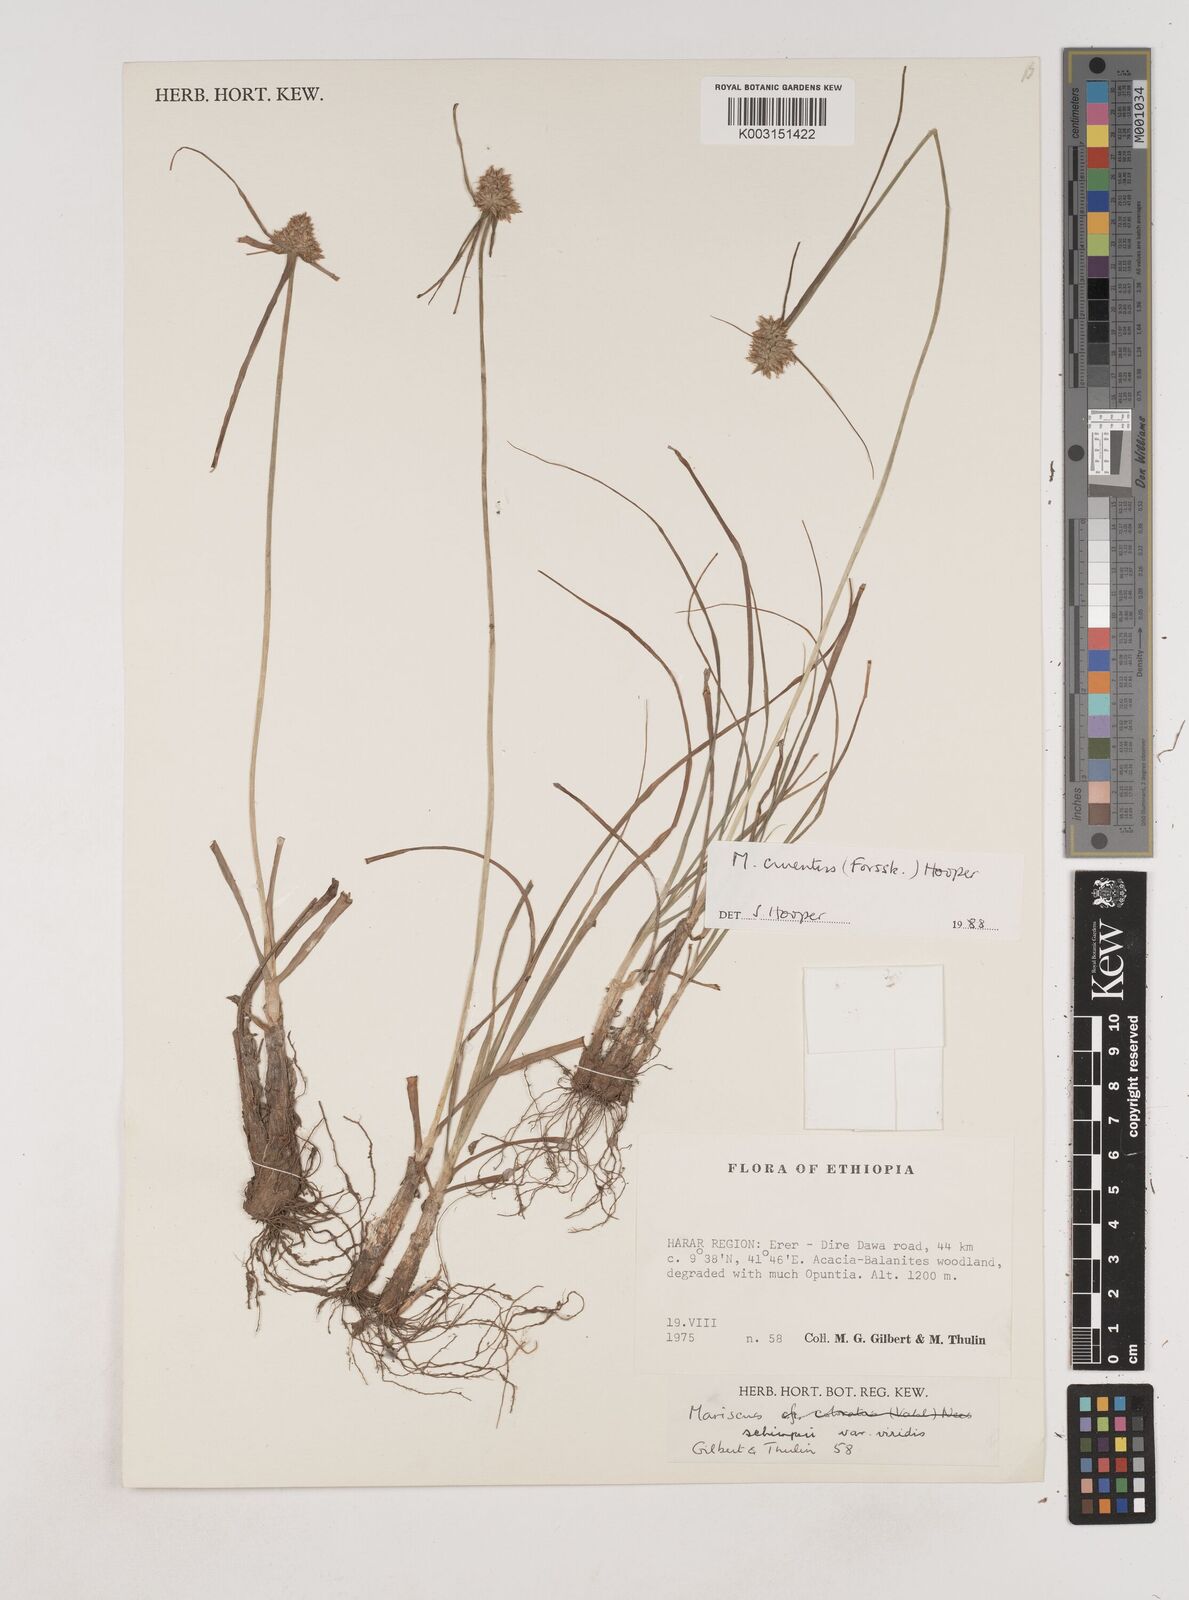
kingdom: Plantae
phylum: Tracheophyta
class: Liliopsida
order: Poales
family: Cyperaceae
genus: Cyperus
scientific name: Cyperus cruentus
